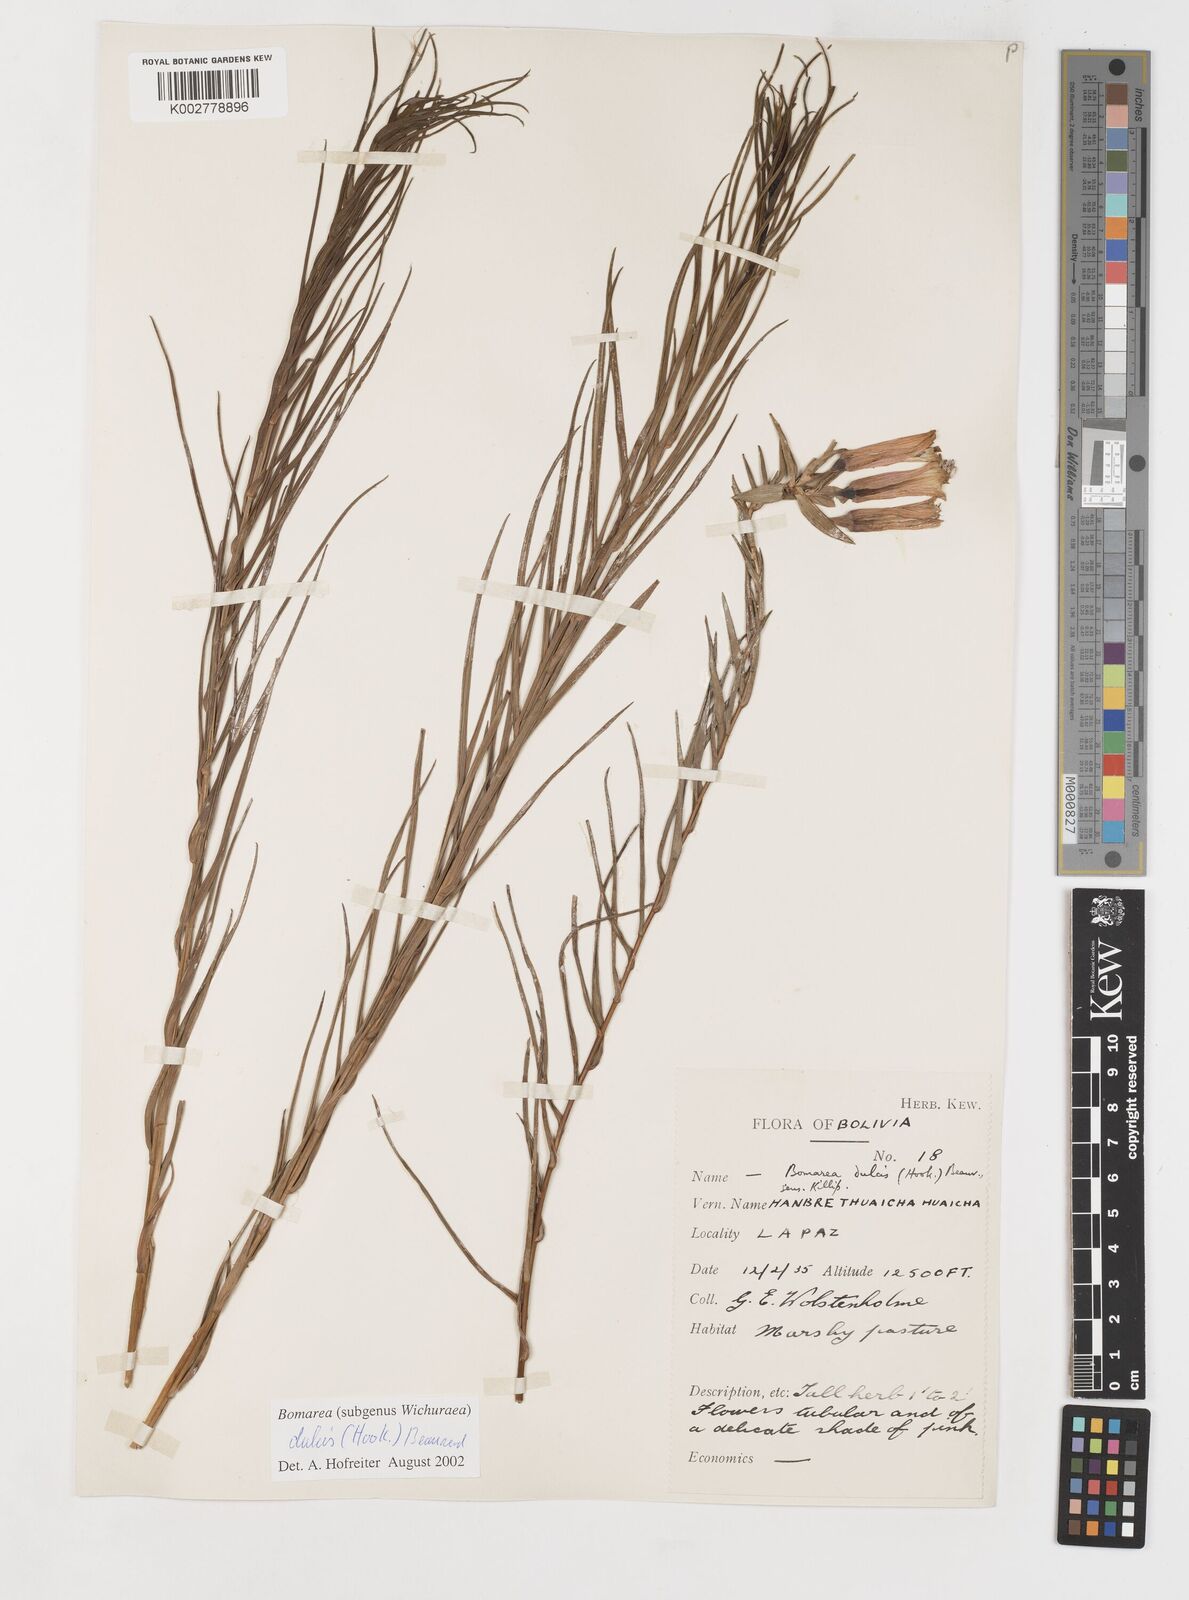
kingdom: Plantae
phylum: Tracheophyta
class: Liliopsida
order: Liliales
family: Alstroemeriaceae
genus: Bomarea
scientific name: Bomarea dulcis
